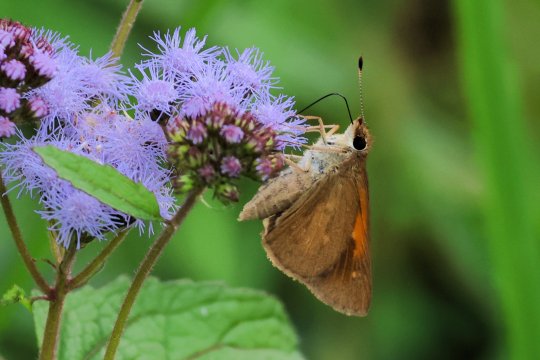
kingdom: Animalia
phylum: Arthropoda
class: Insecta
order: Lepidoptera
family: Hesperiidae
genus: Poanes
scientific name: Poanes viator
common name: Broad-winged Skipper
